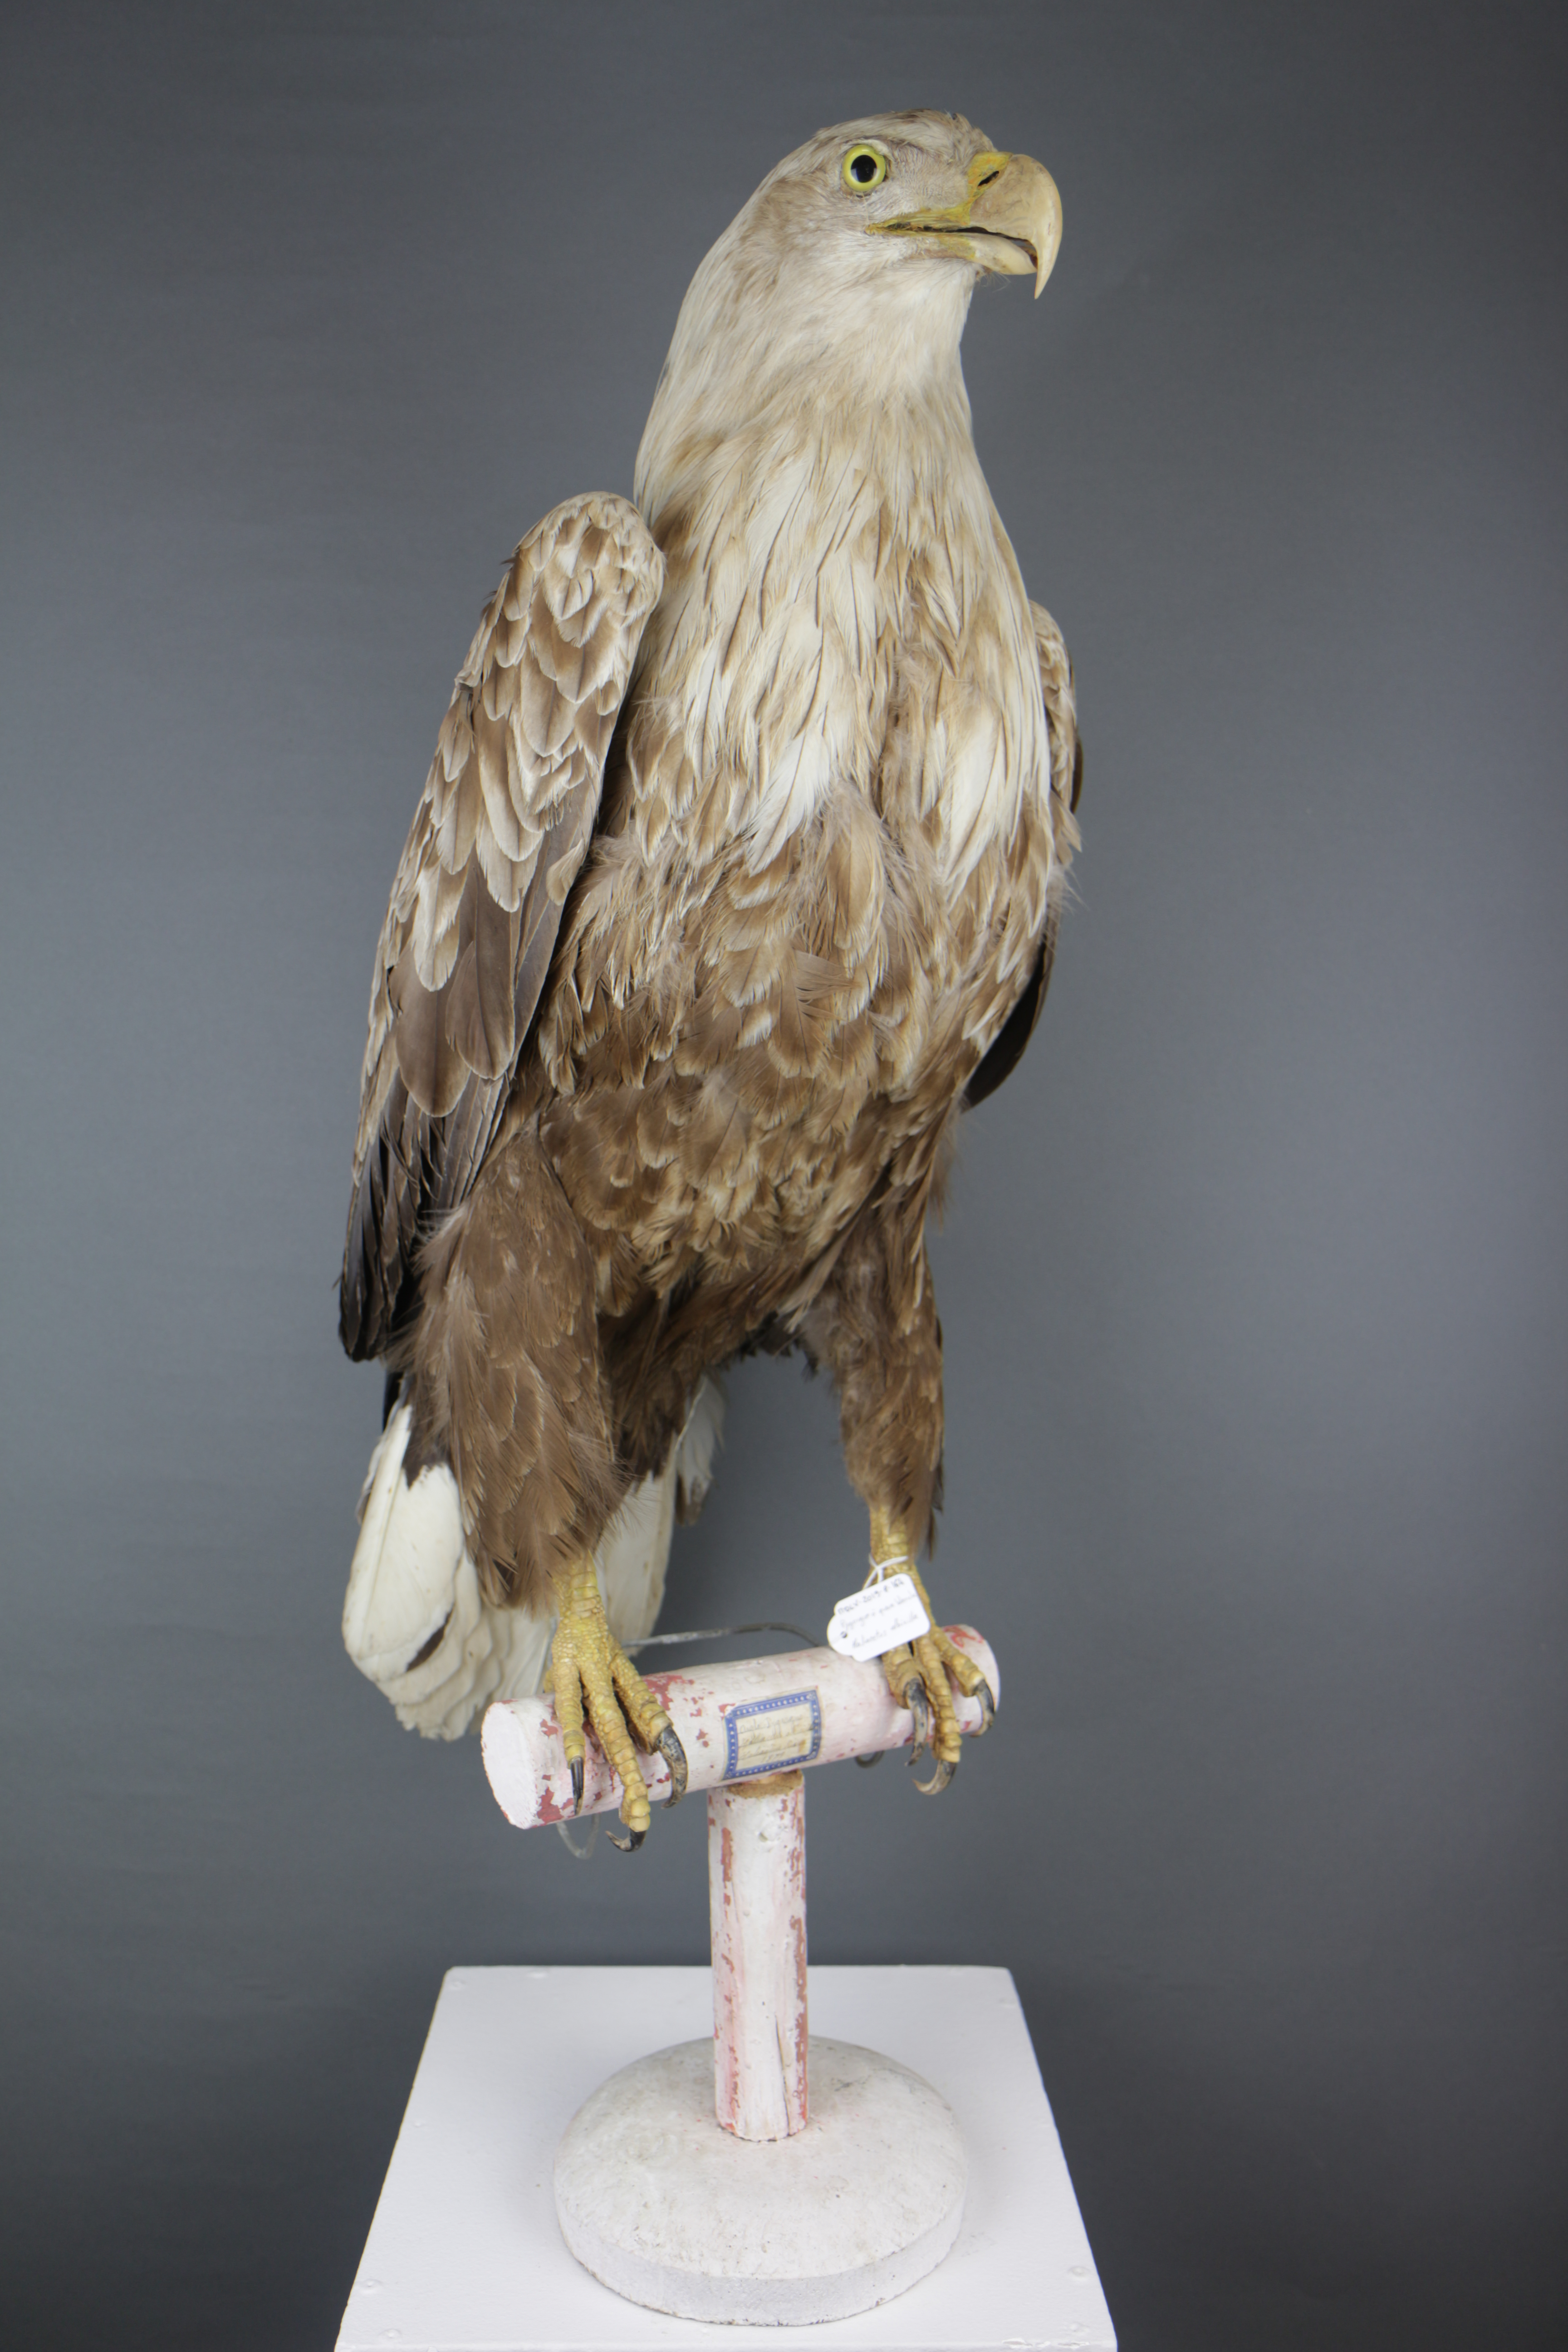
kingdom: Animalia
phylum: Chordata
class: Aves
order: Accipitriformes
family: Accipitridae
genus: Haliaeetus
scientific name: Haliaeetus albicilla
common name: White-tailed eagle
